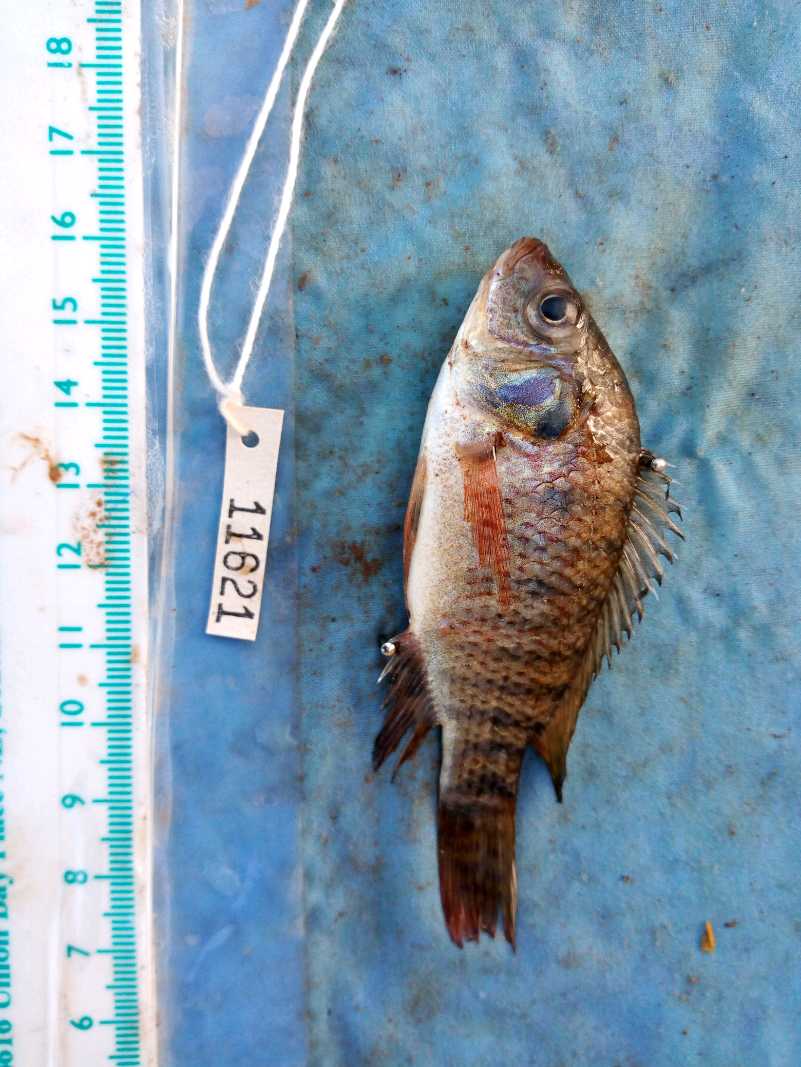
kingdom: Animalia
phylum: Chordata
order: Perciformes
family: Cichlidae
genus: Oreochromis
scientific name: Oreochromis spilurus
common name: Sabaki tilapia
